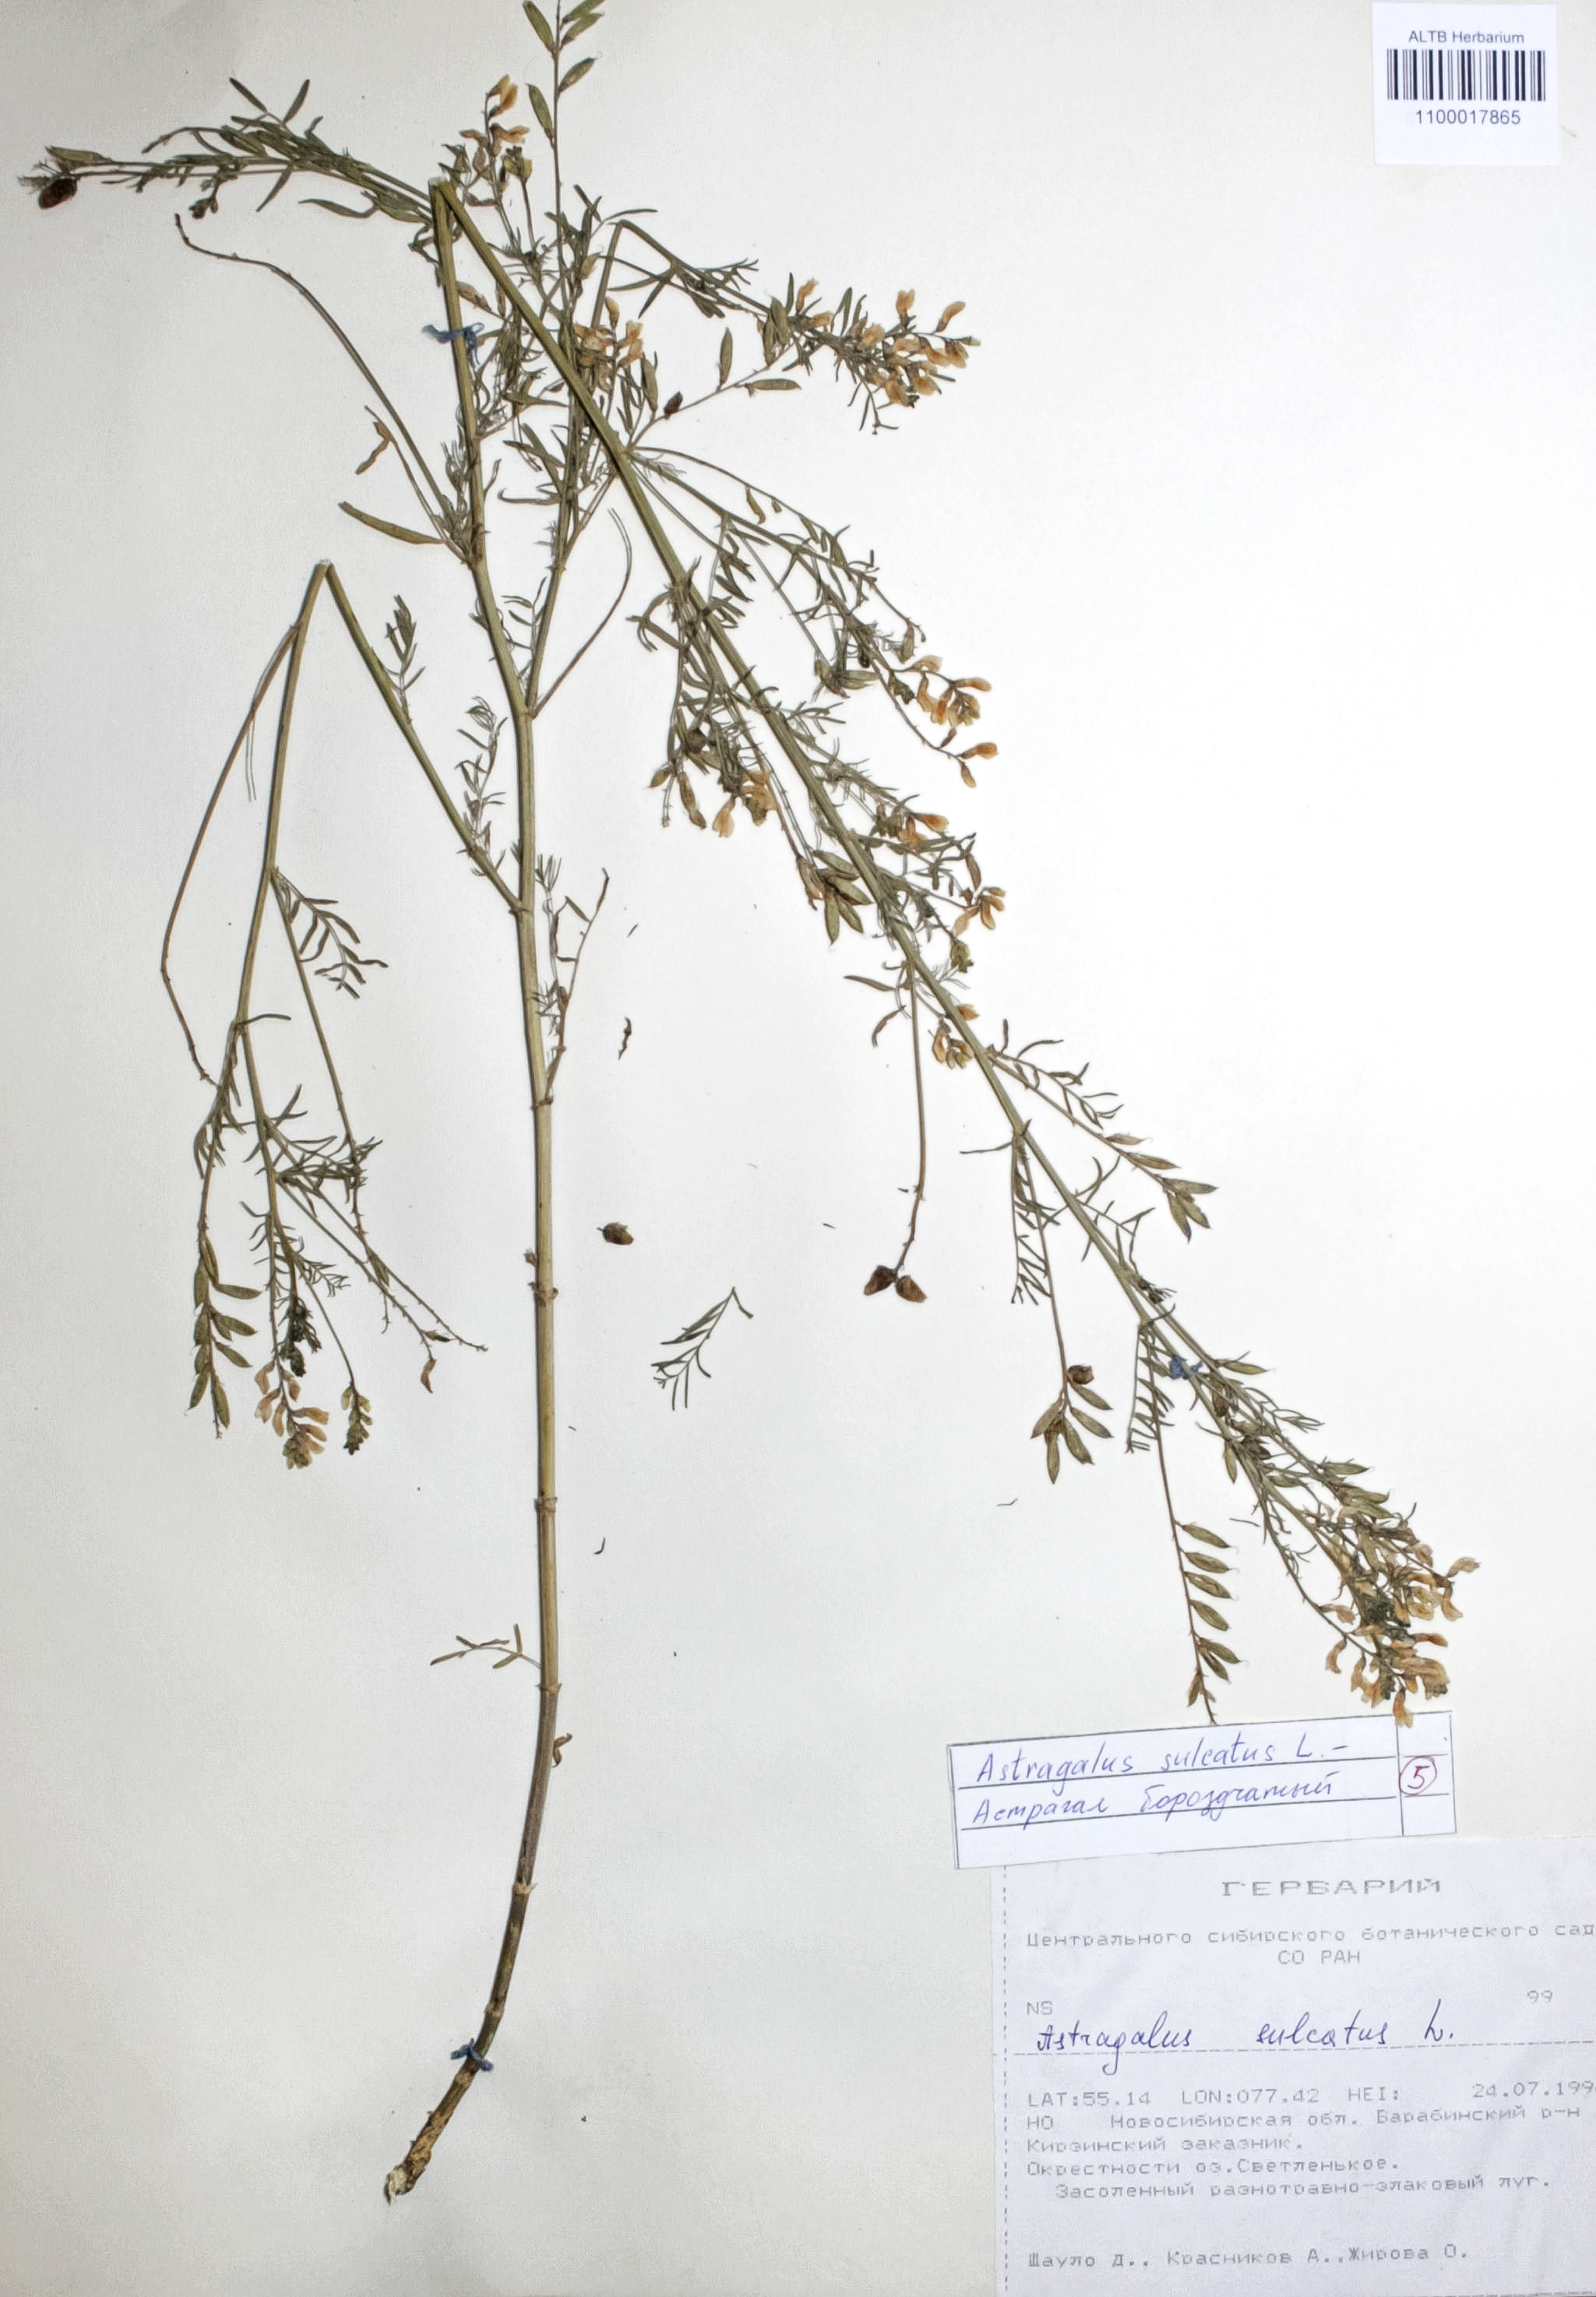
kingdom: Plantae
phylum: Tracheophyta
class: Magnoliopsida
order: Fabales
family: Fabaceae
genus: Astragalus
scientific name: Astragalus sulcatus
